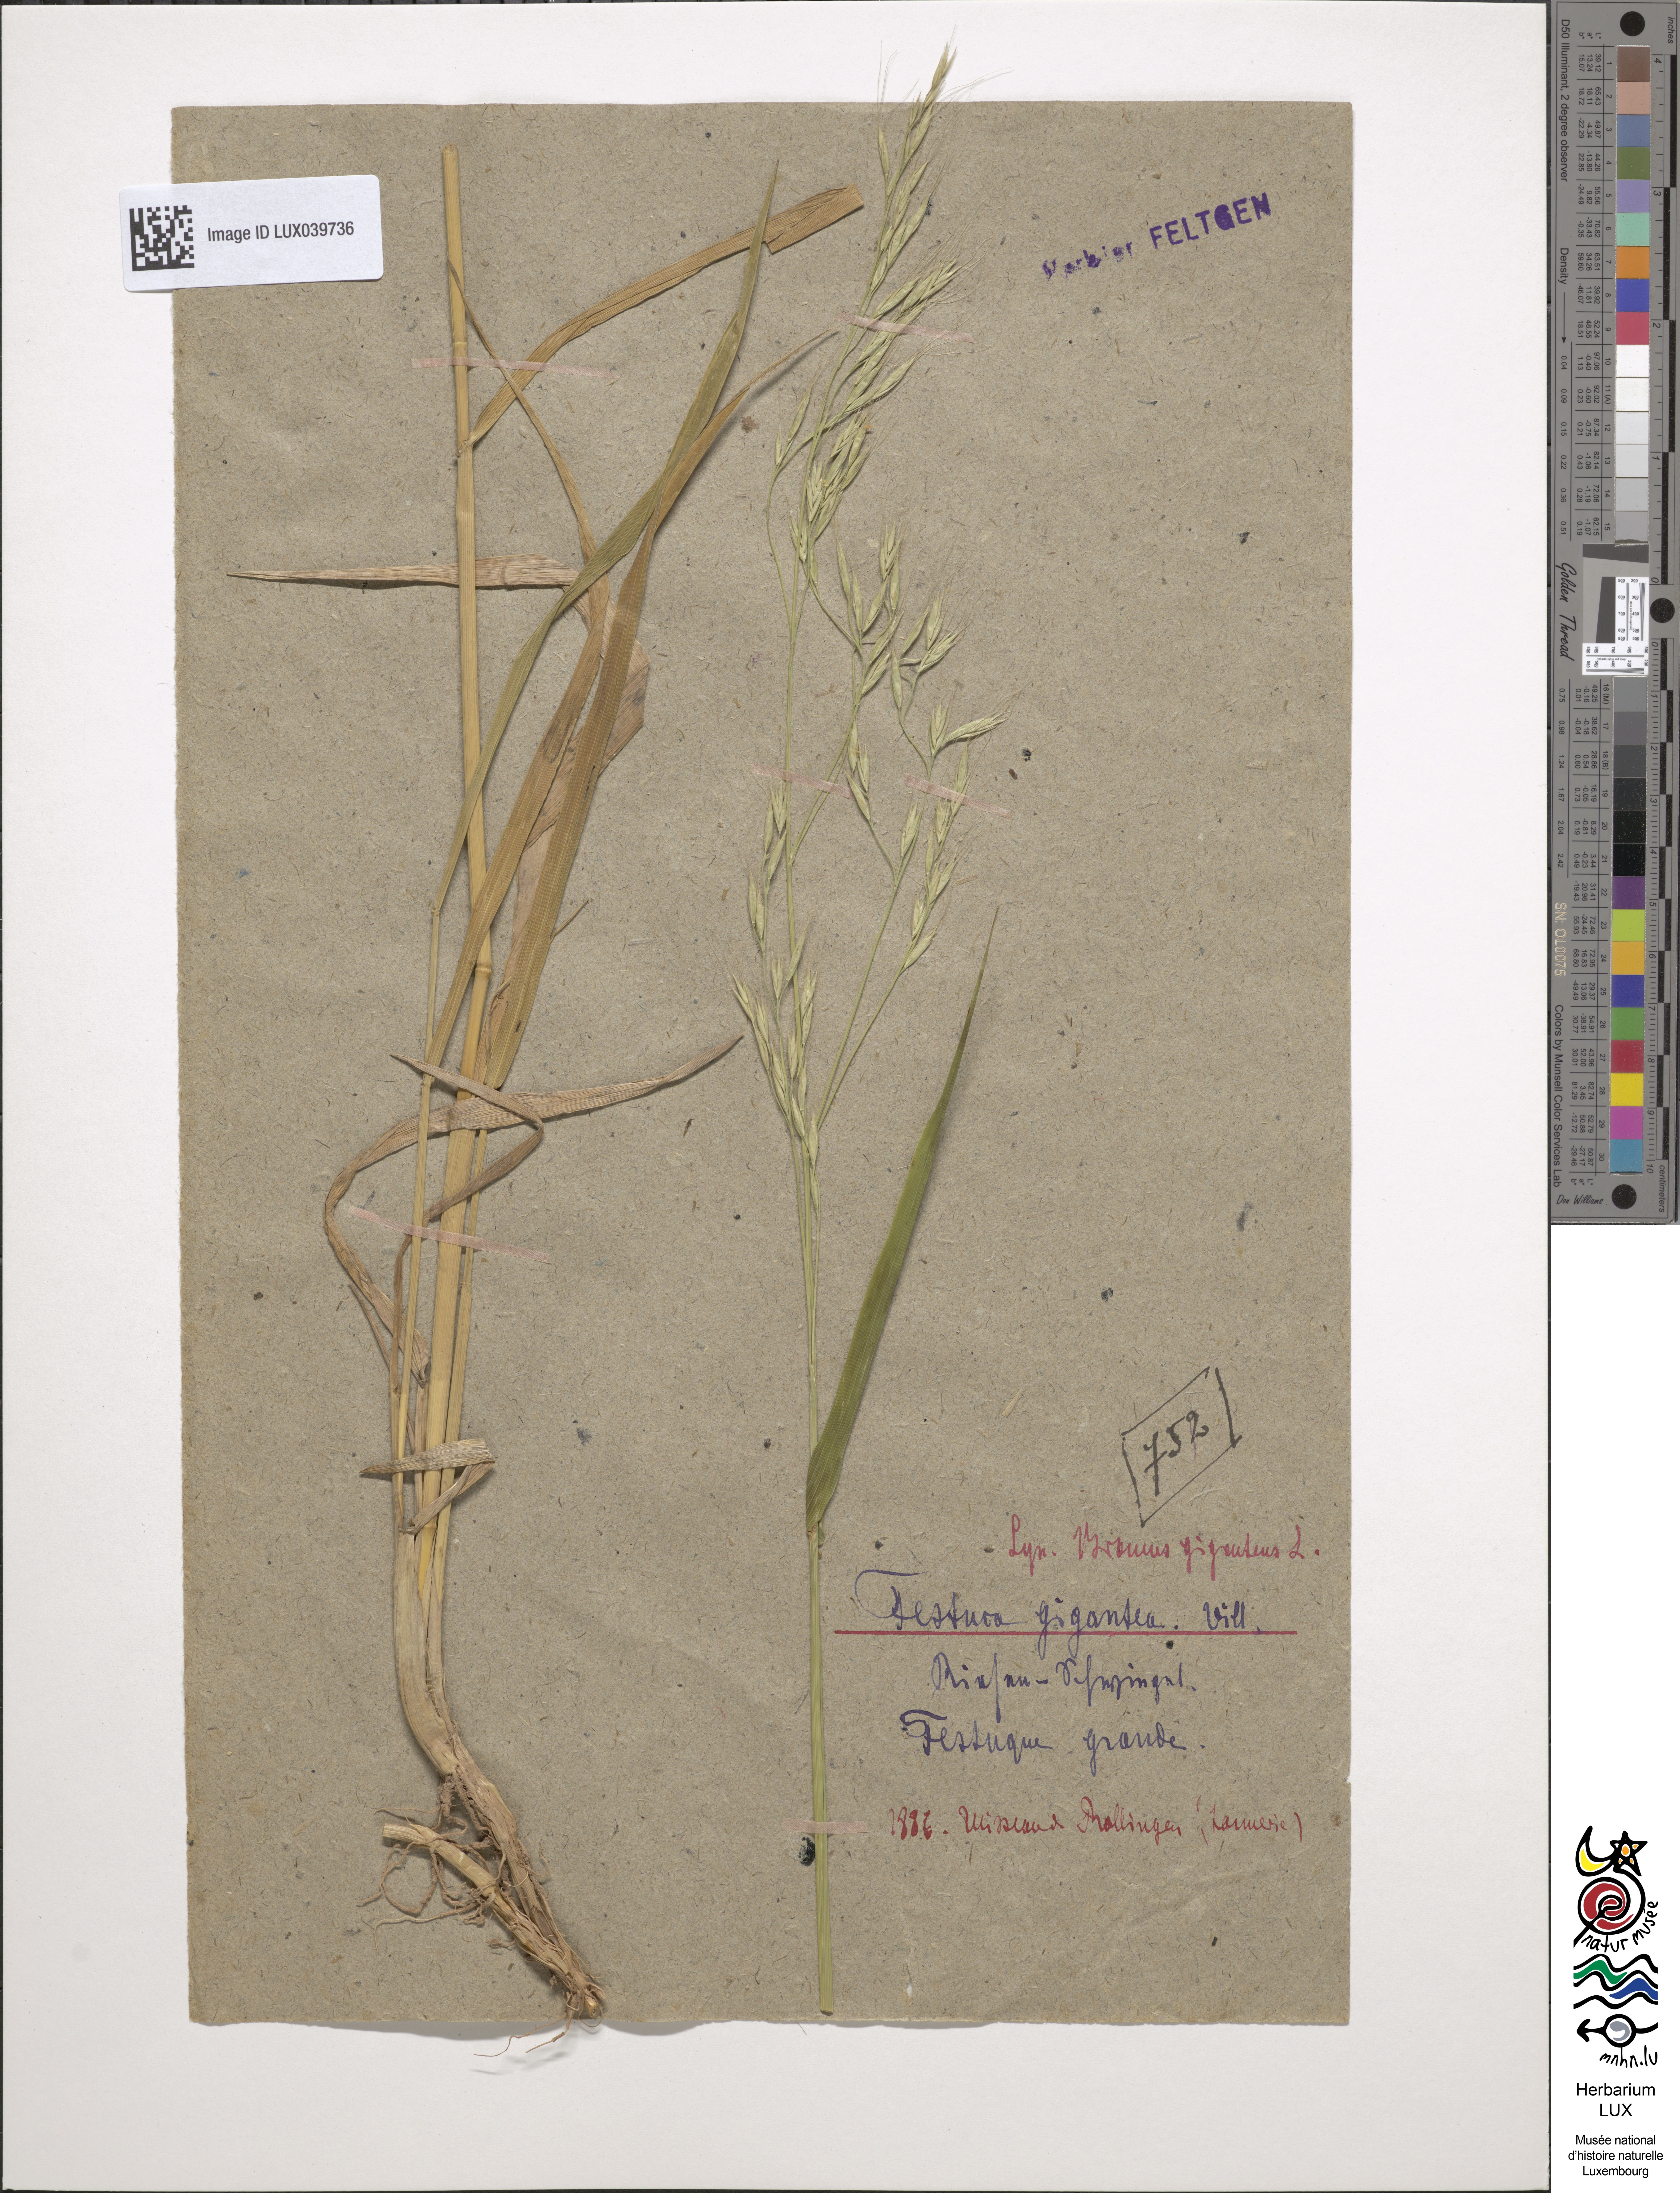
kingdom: Plantae
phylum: Tracheophyta
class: Liliopsida
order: Poales
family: Poaceae
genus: Lolium
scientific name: Lolium giganteum
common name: Giant fescue
